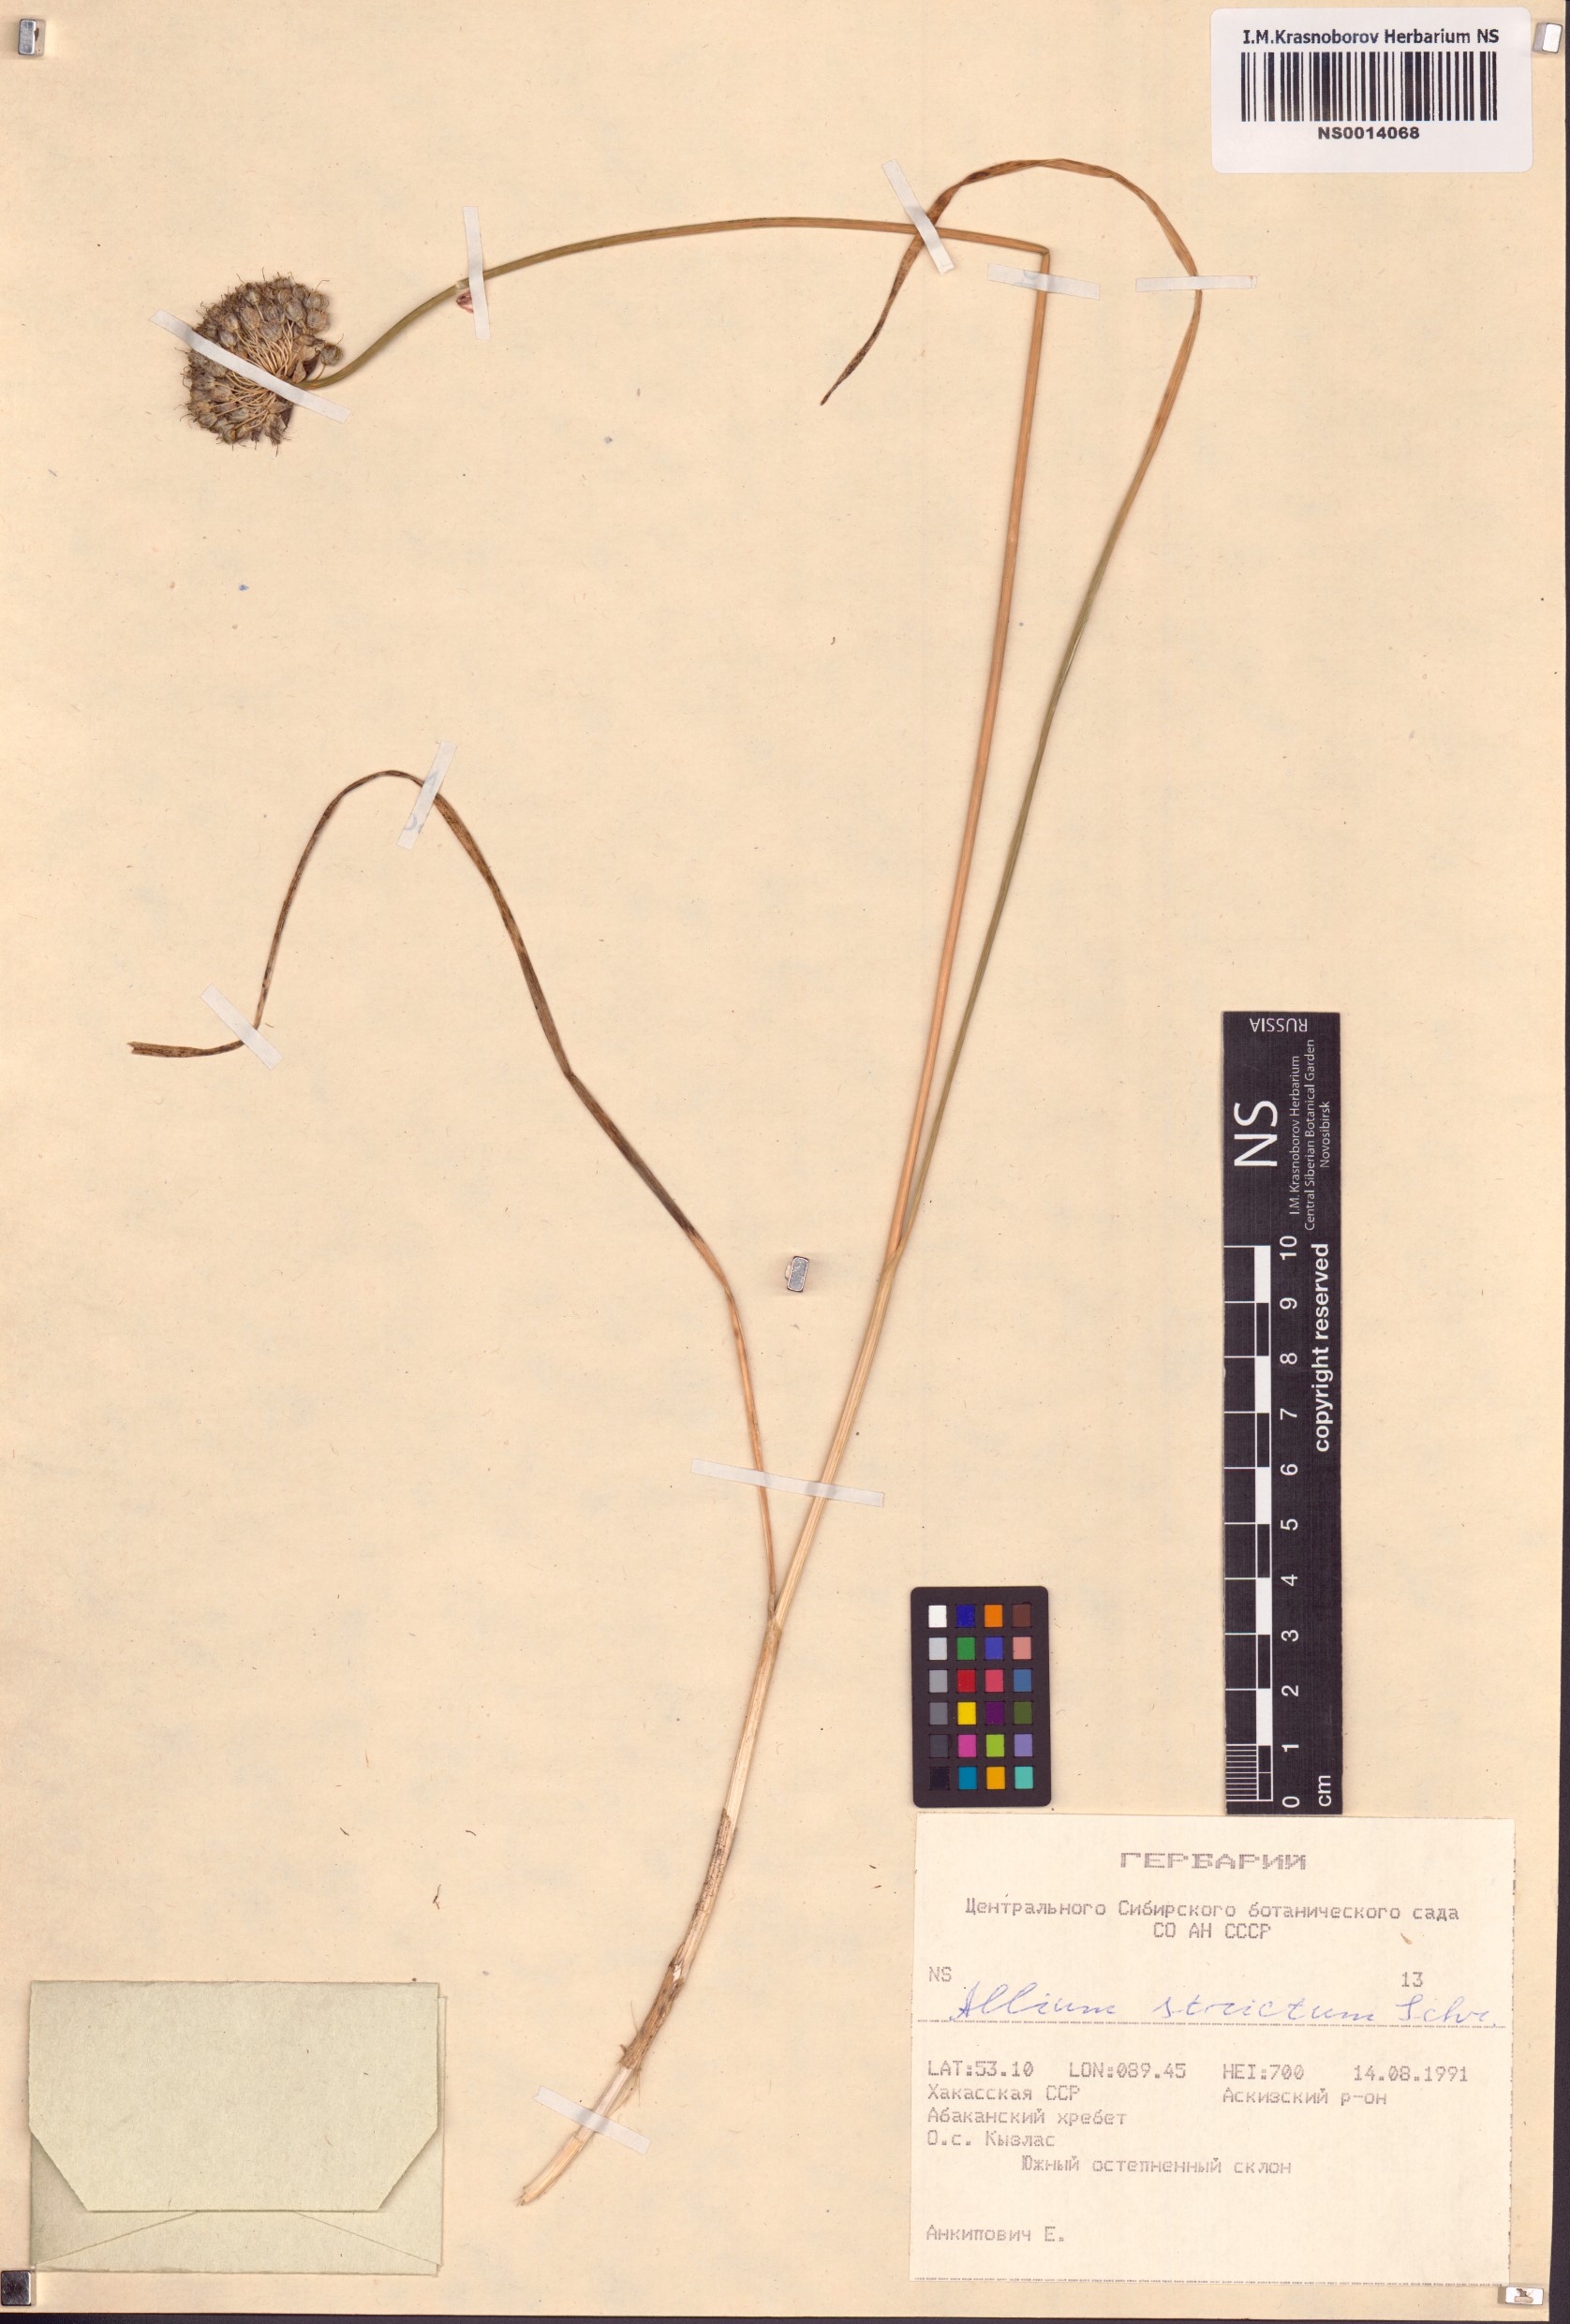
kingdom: Plantae
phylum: Tracheophyta
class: Liliopsida
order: Asparagales
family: Amaryllidaceae
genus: Allium
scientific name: Allium strictum
